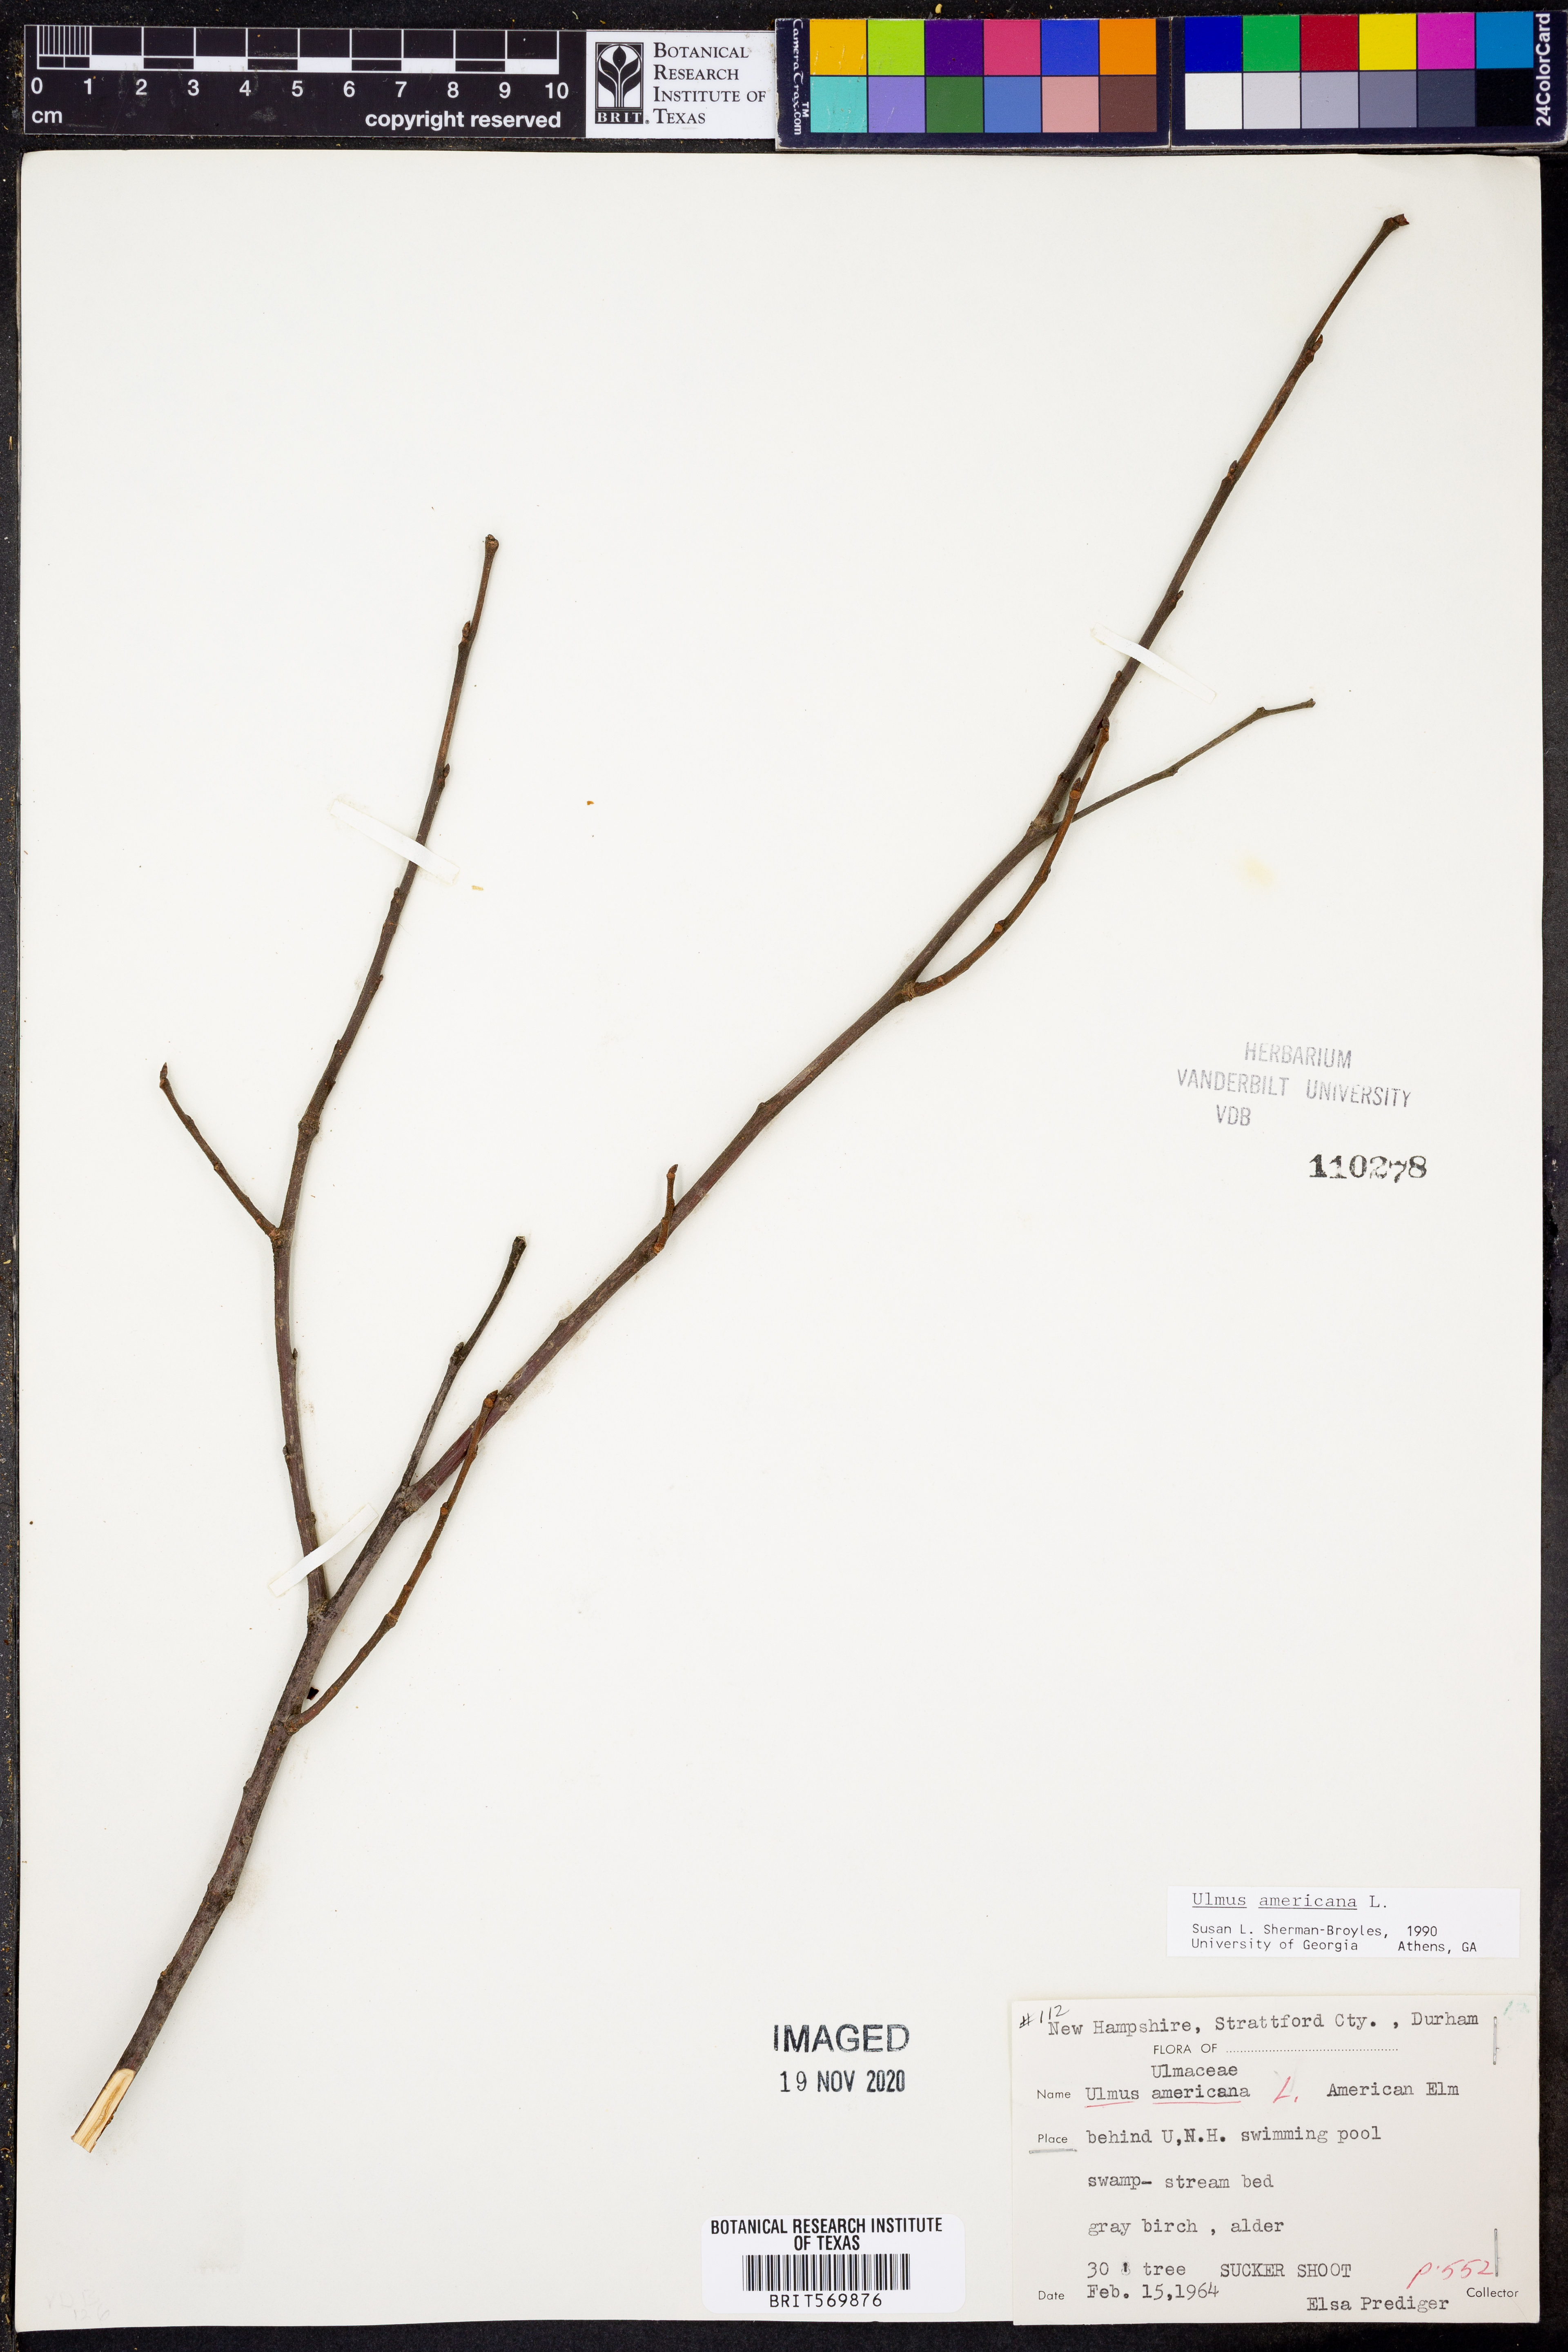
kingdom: Plantae
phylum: Tracheophyta
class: Magnoliopsida
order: Rosales
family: Ulmaceae
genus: Ulmus
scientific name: Ulmus americana
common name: American elm
